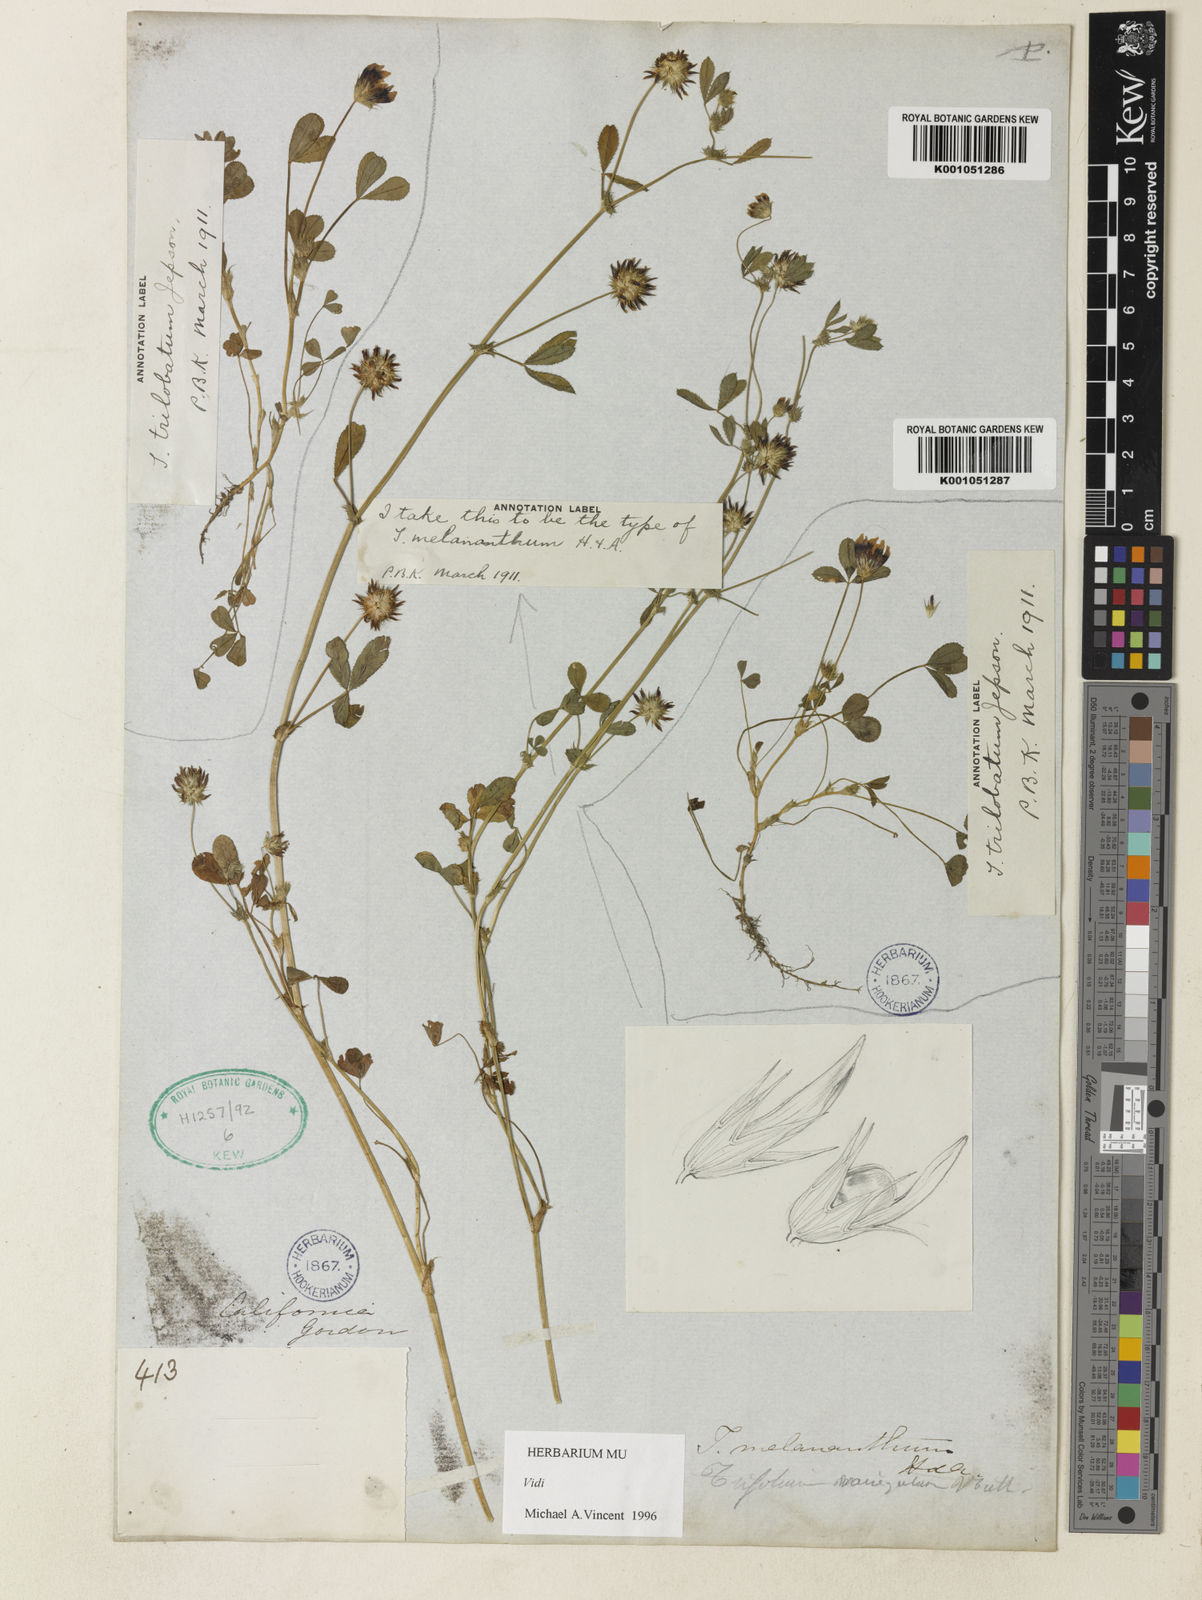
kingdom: Plantae
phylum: Tracheophyta
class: Magnoliopsida
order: Fabales
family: Fabaceae
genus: Trifolium
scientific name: Trifolium variegatum
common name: Whitetip clover
